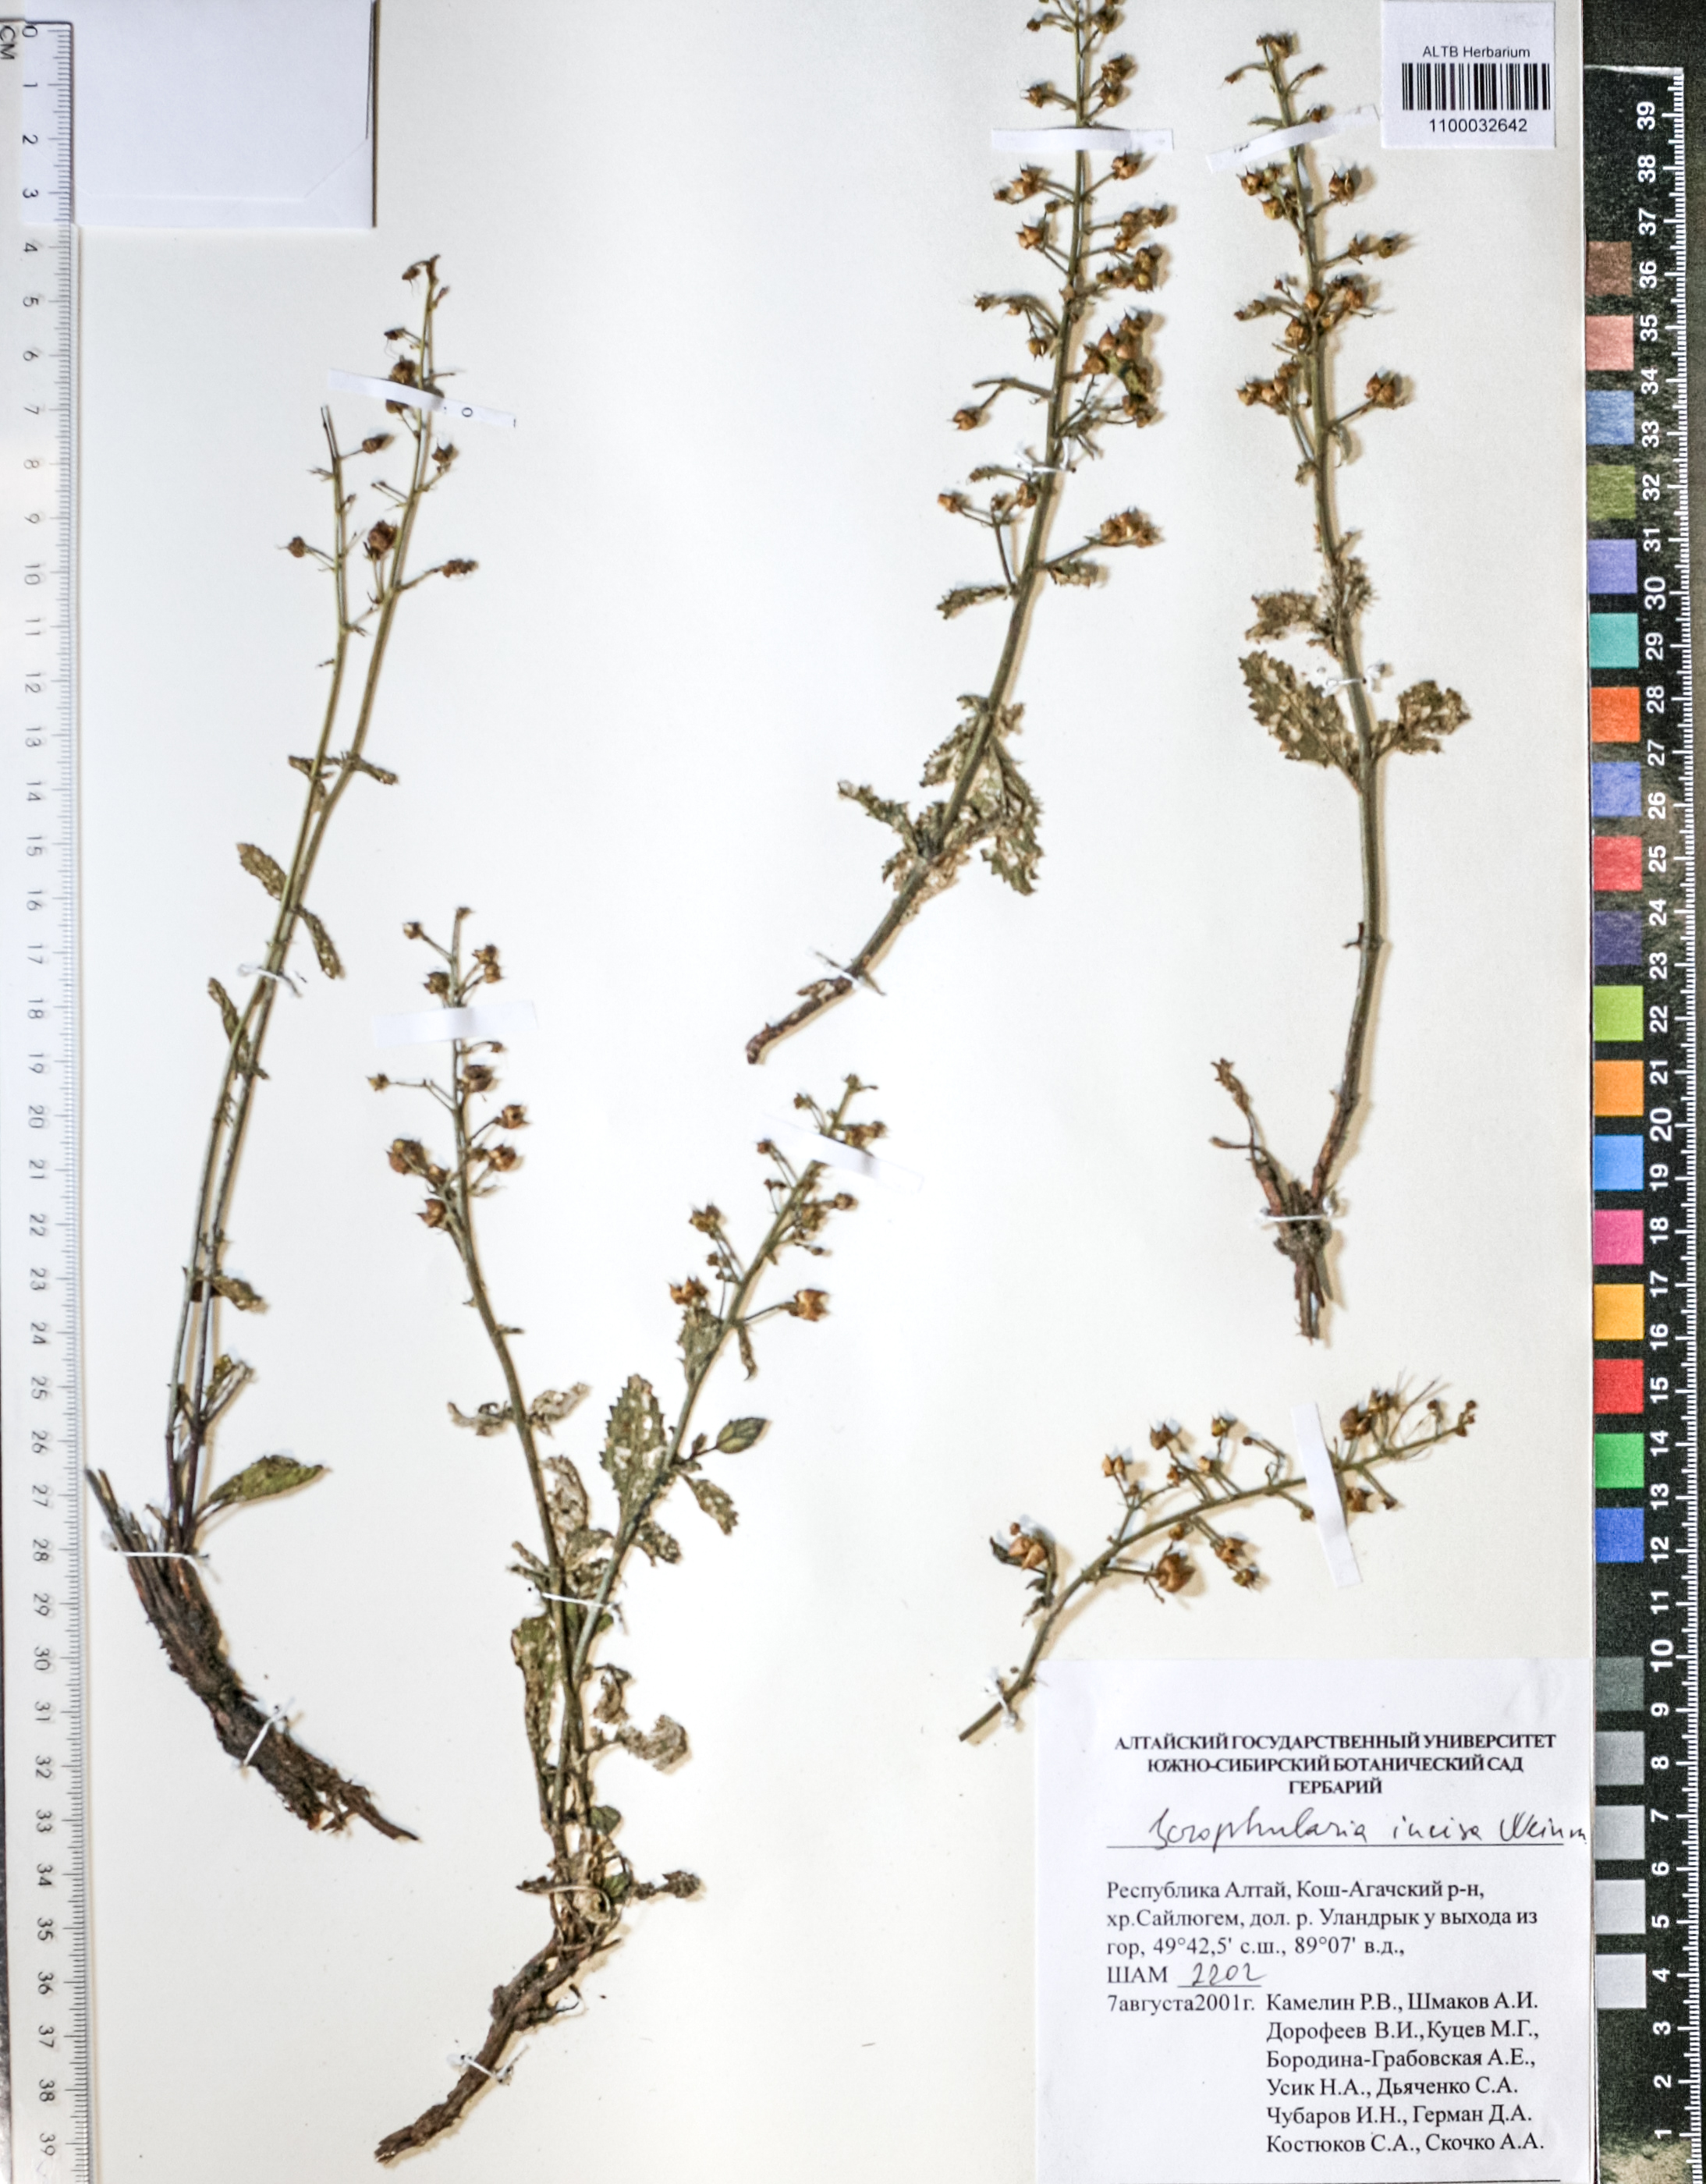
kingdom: Plantae
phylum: Tracheophyta
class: Magnoliopsida
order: Lamiales
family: Scrophulariaceae
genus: Scrophularia
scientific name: Scrophularia incisa
